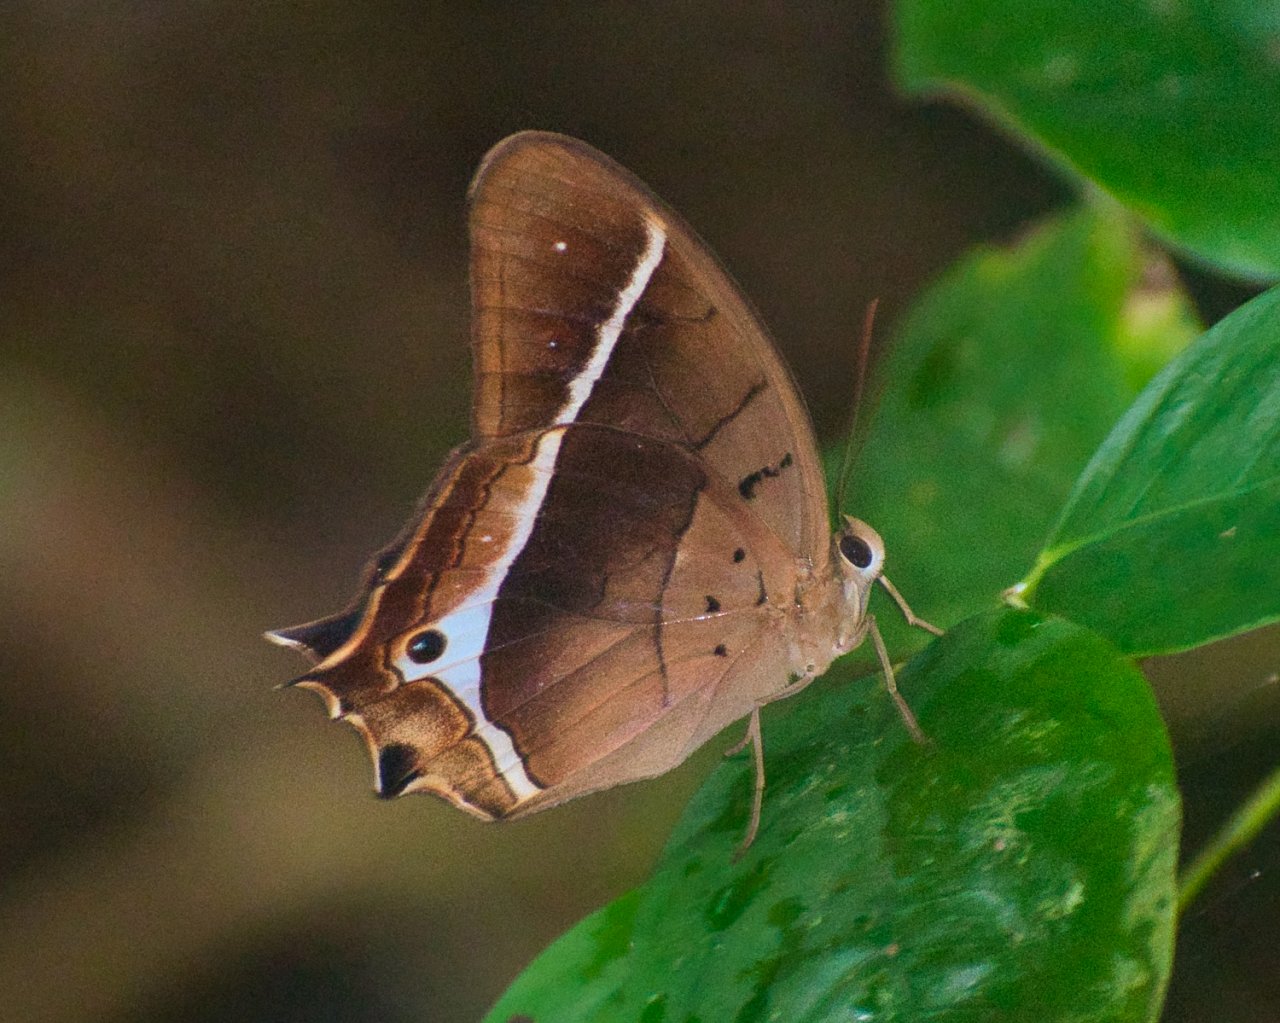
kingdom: Animalia
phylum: Arthropoda
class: Insecta
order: Lepidoptera
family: Nymphalidae
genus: Antirrhea
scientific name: Antirrhea philoctetes
